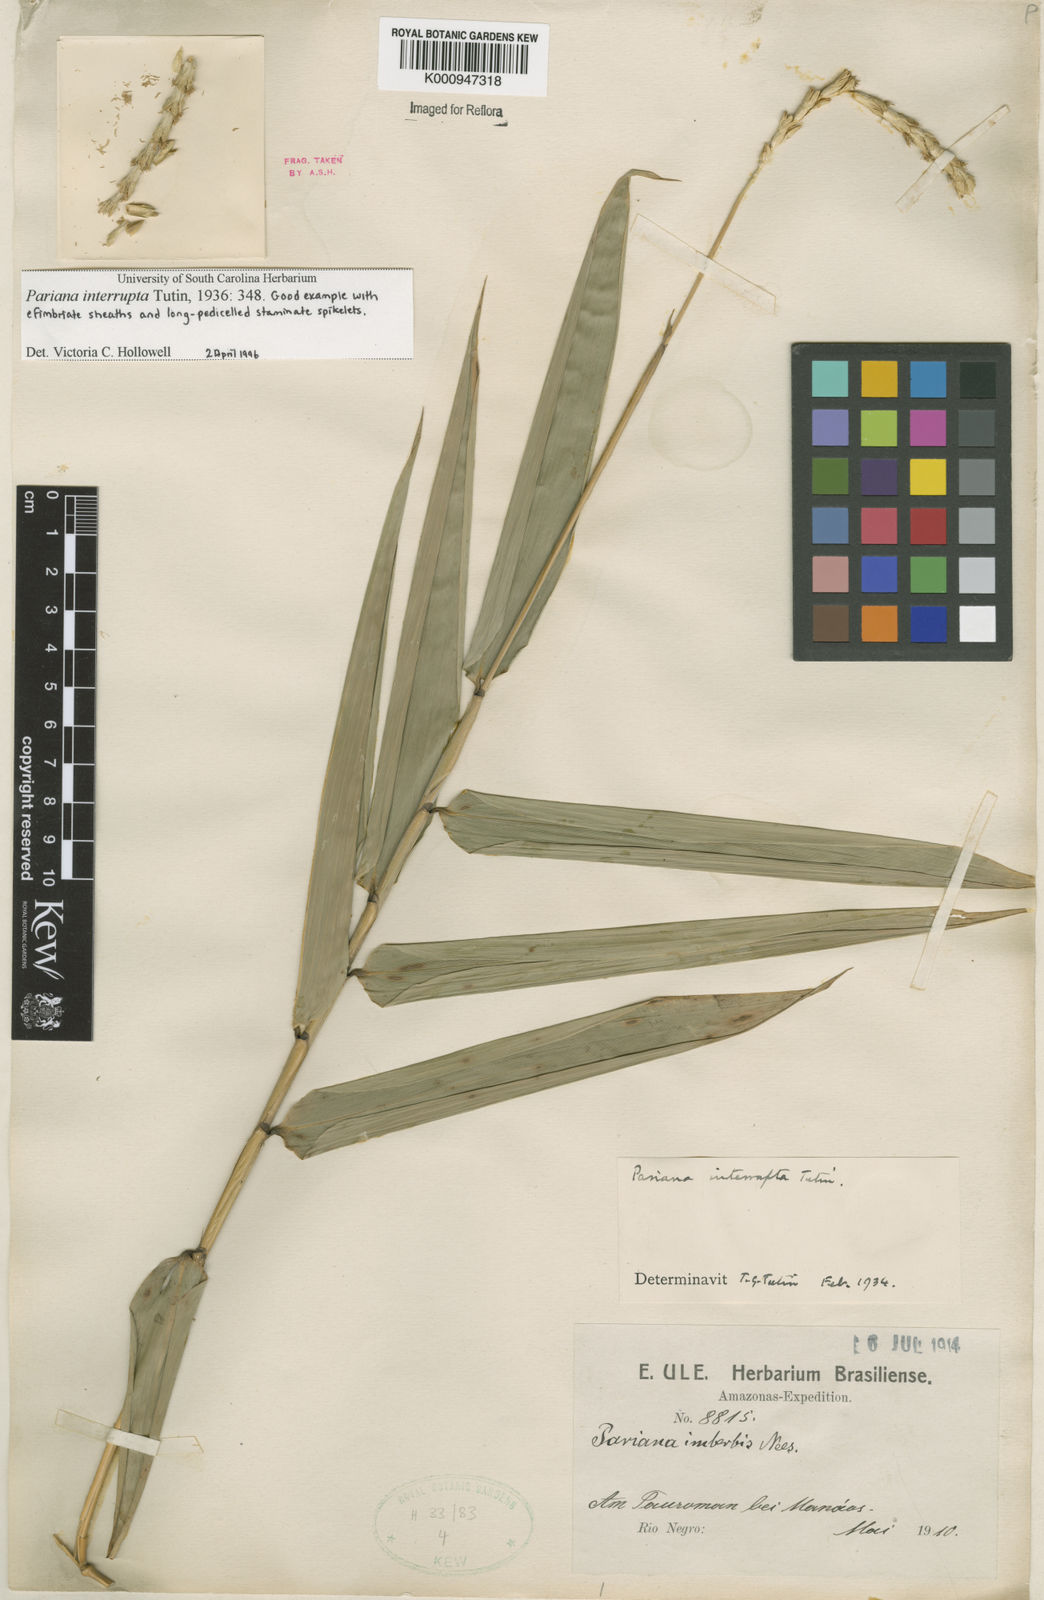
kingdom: Plantae
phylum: Tracheophyta
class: Liliopsida
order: Poales
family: Poaceae
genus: Pariana
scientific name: Pariana interrupta
